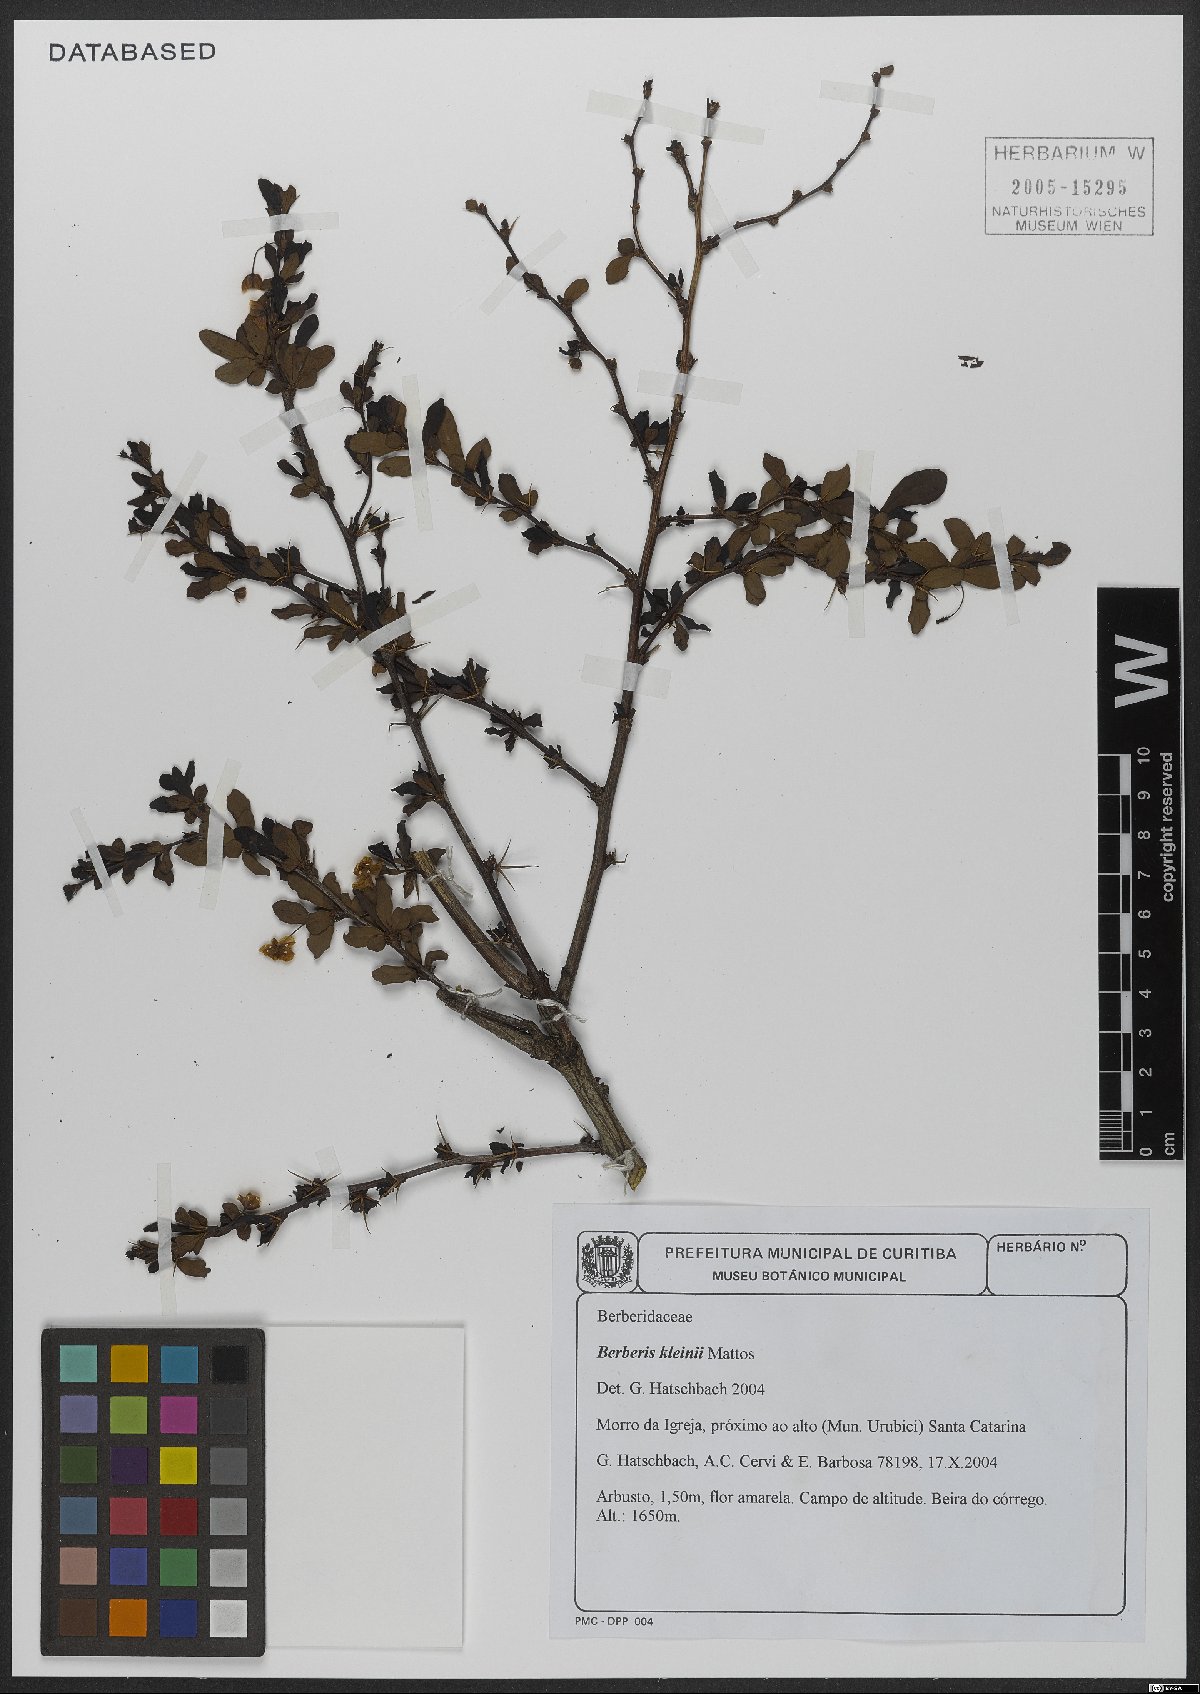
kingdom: Plantae
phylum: Tracheophyta
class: Magnoliopsida
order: Ranunculales
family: Berberidaceae
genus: Berberis
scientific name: Berberis kleinii
